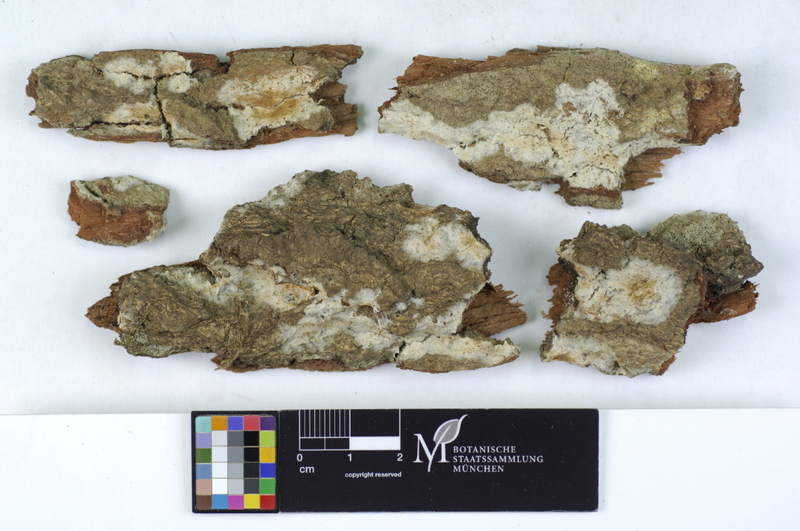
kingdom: Fungi
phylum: Basidiomycota
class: Agaricomycetes
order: Boletales
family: Coniophoraceae
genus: Coniophora
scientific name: Coniophora puteana
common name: Cellar fungus
